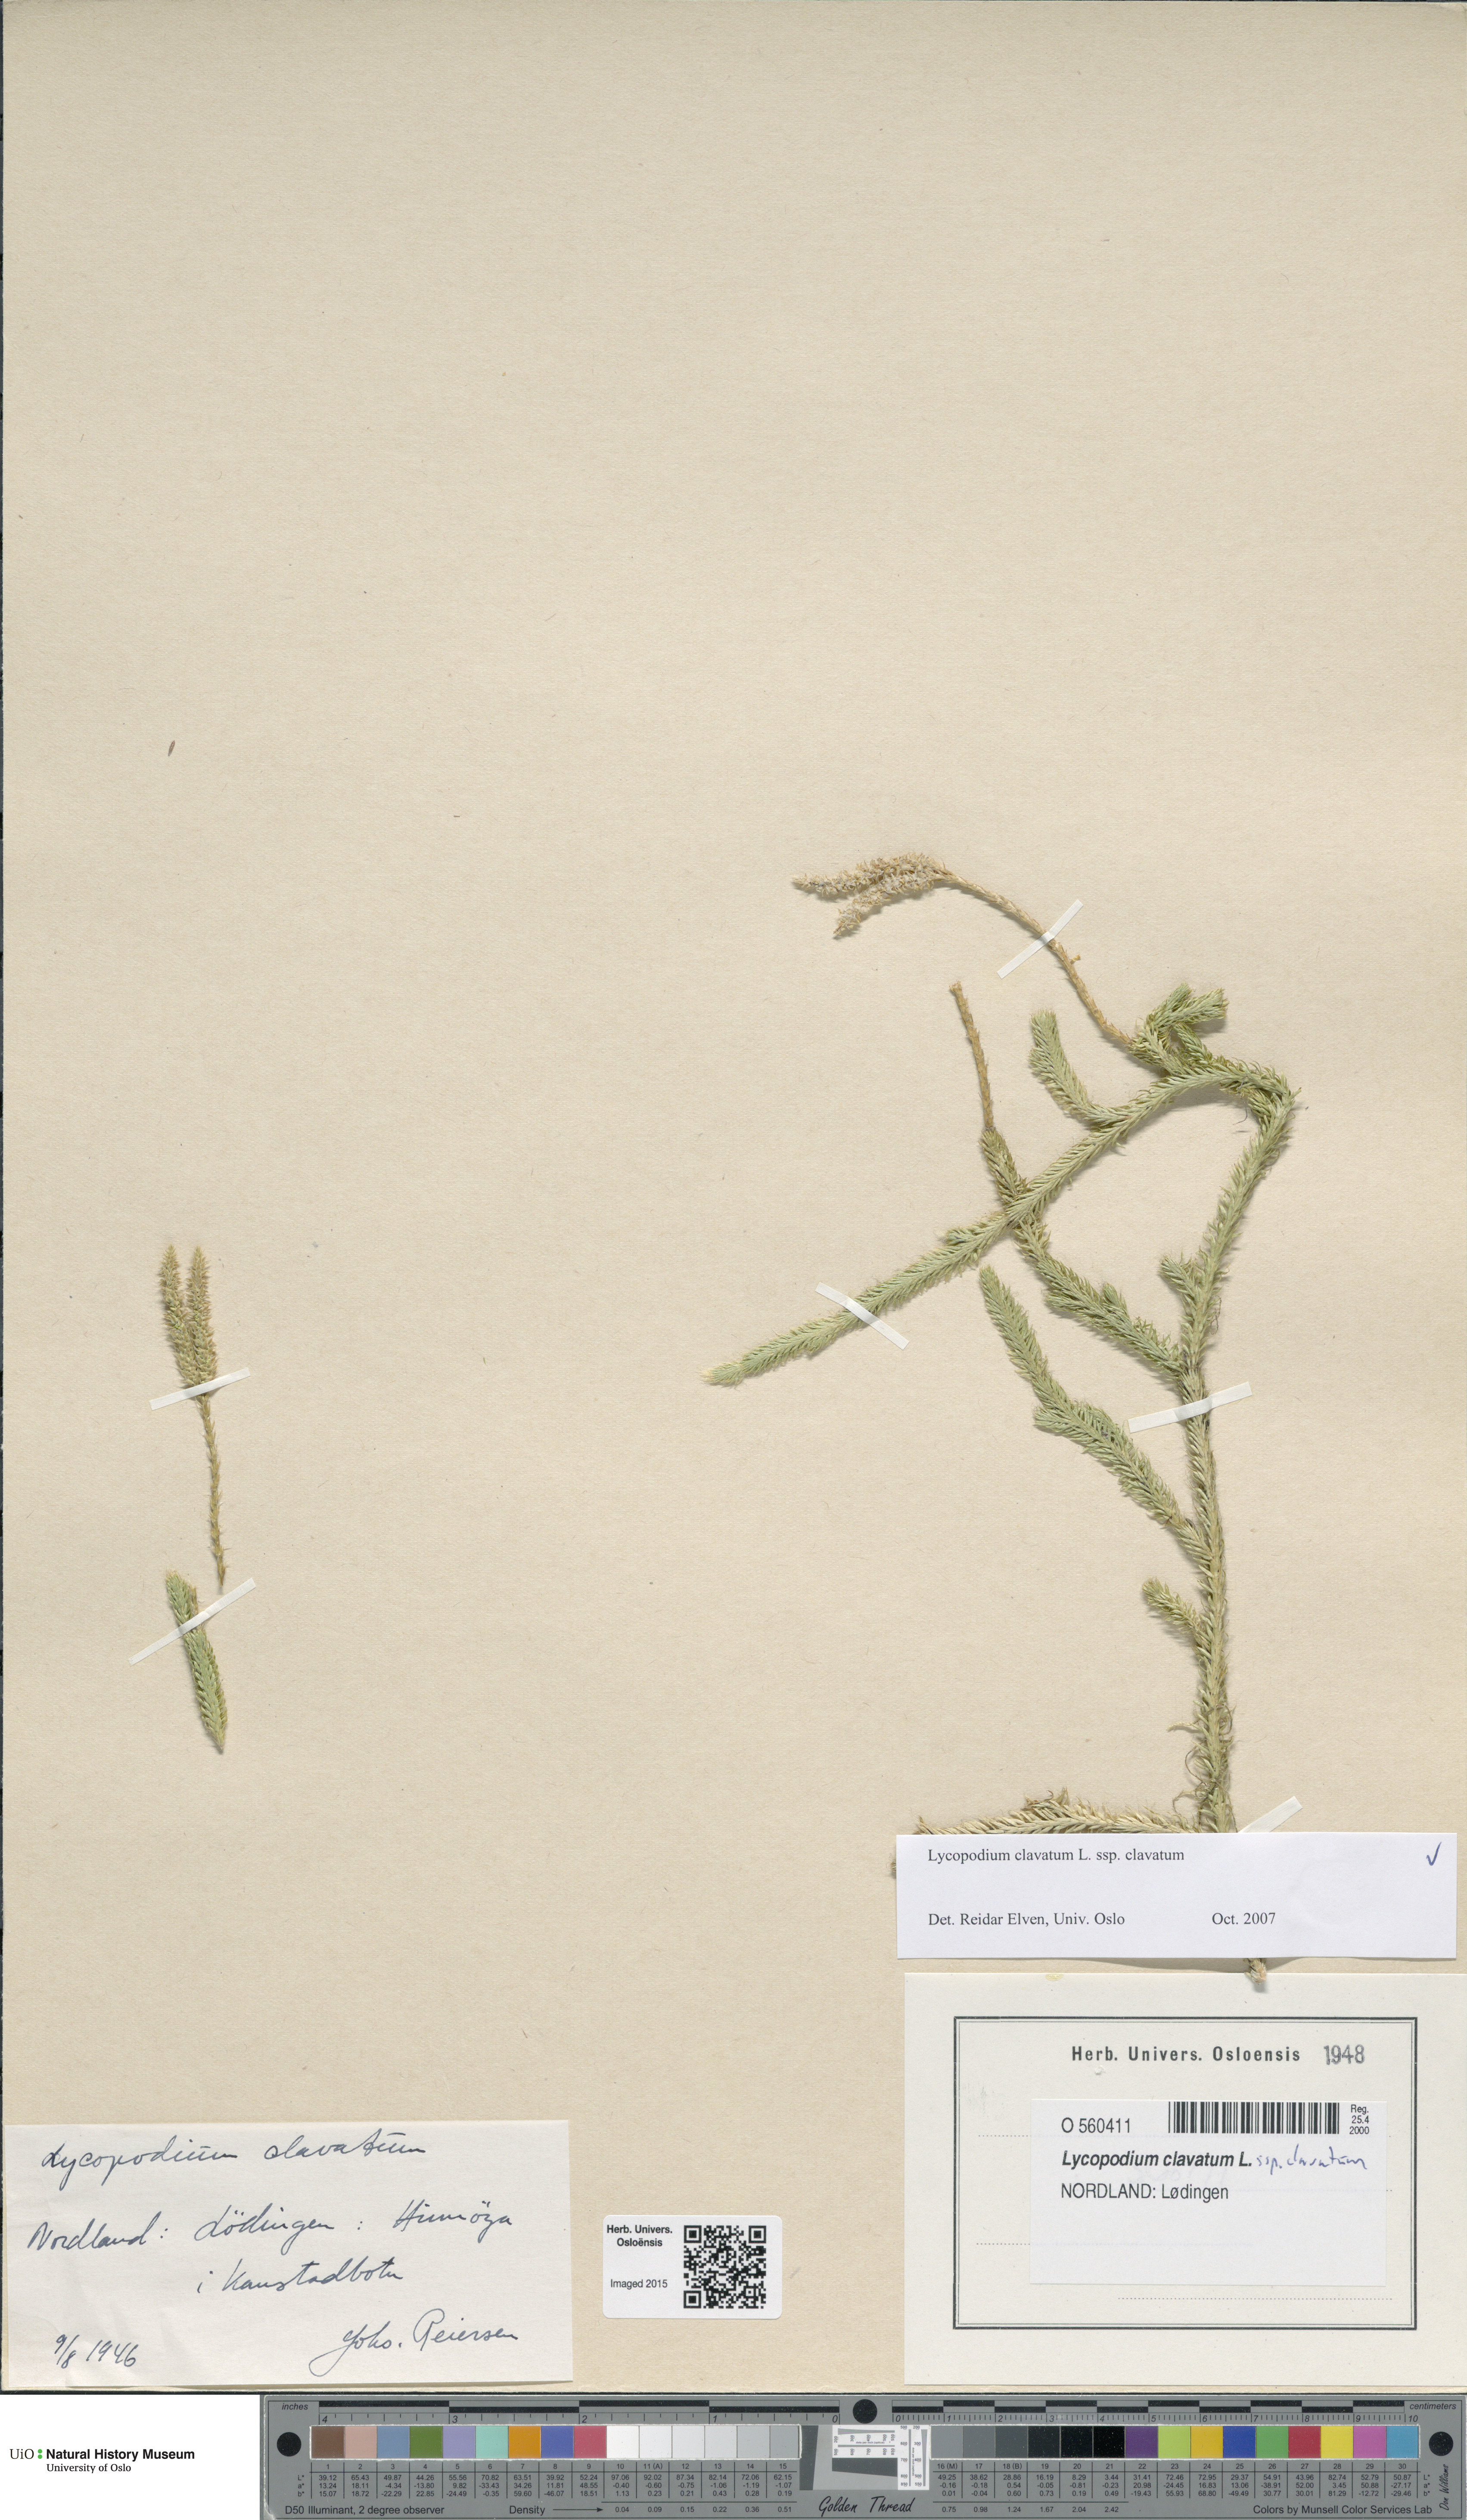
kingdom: Plantae
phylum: Tracheophyta
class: Lycopodiopsida
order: Lycopodiales
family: Lycopodiaceae
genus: Lycopodium
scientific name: Lycopodium clavatum
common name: Stag's-horn clubmoss
